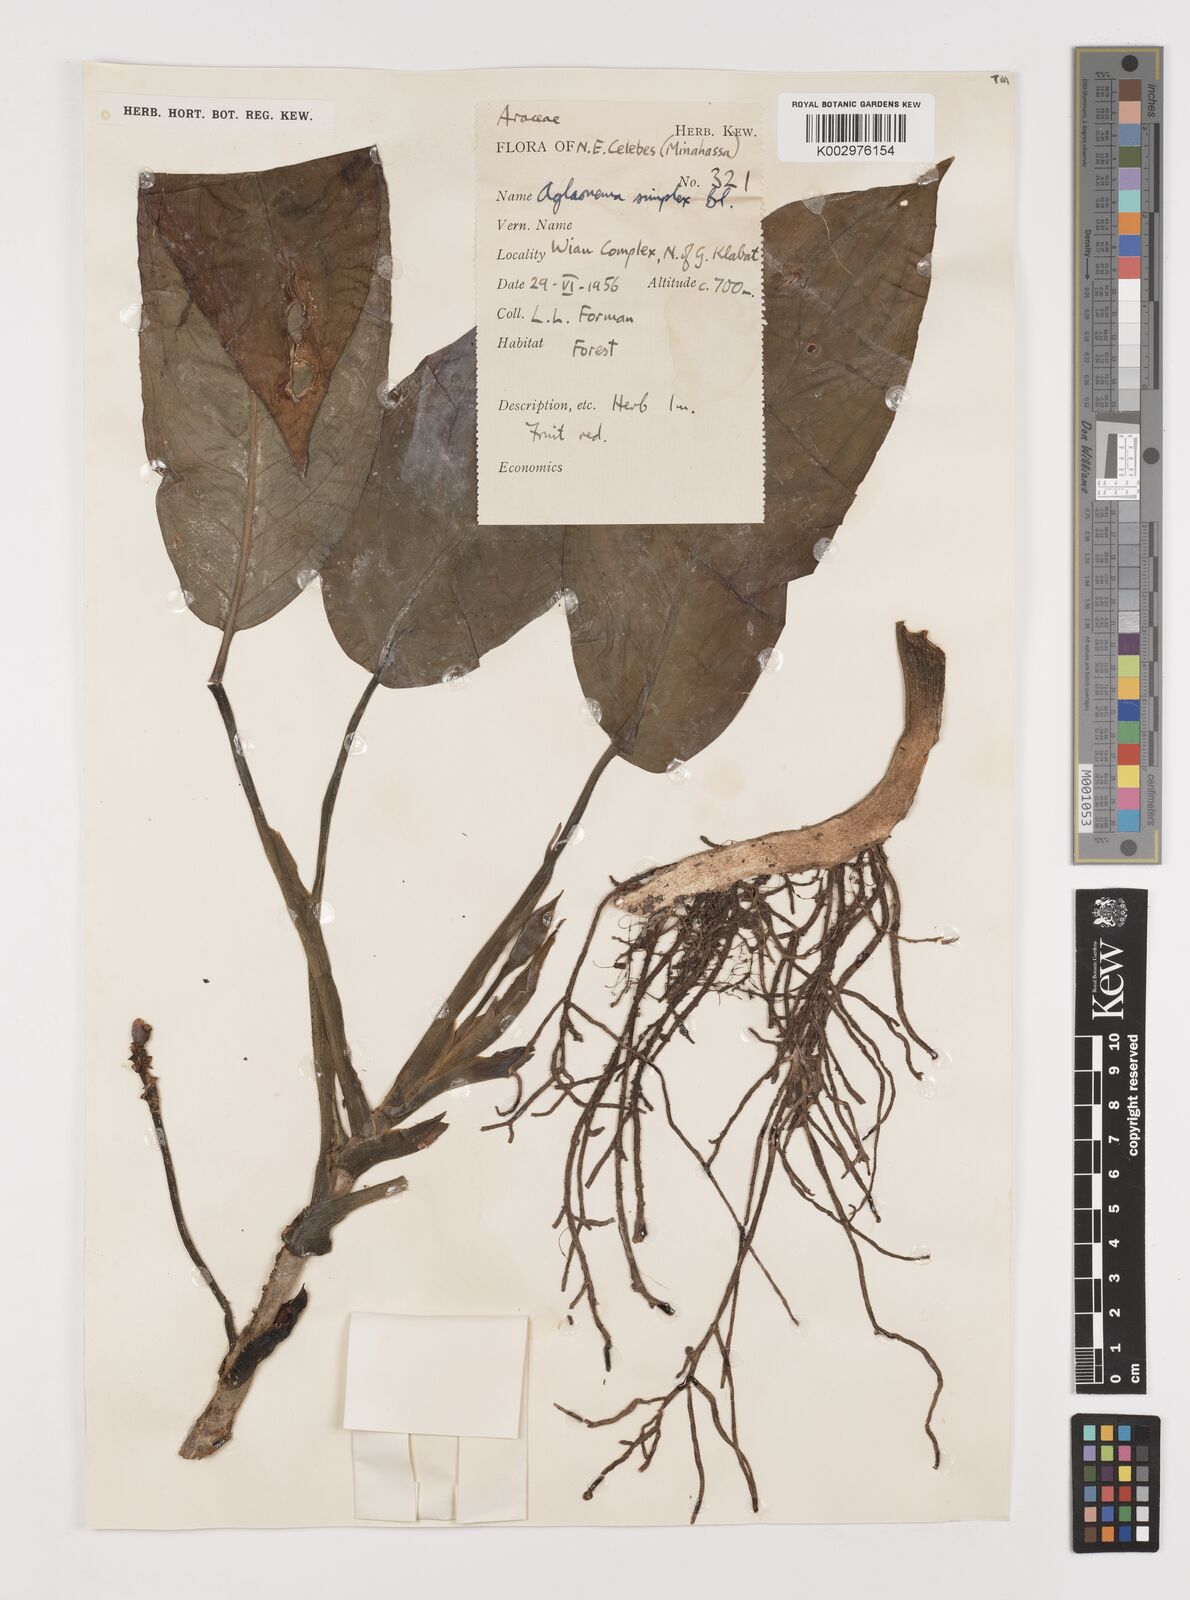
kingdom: Plantae
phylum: Tracheophyta
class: Liliopsida
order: Alismatales
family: Araceae
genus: Aglaonema
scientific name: Aglaonema simplex
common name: Malayan-sword
